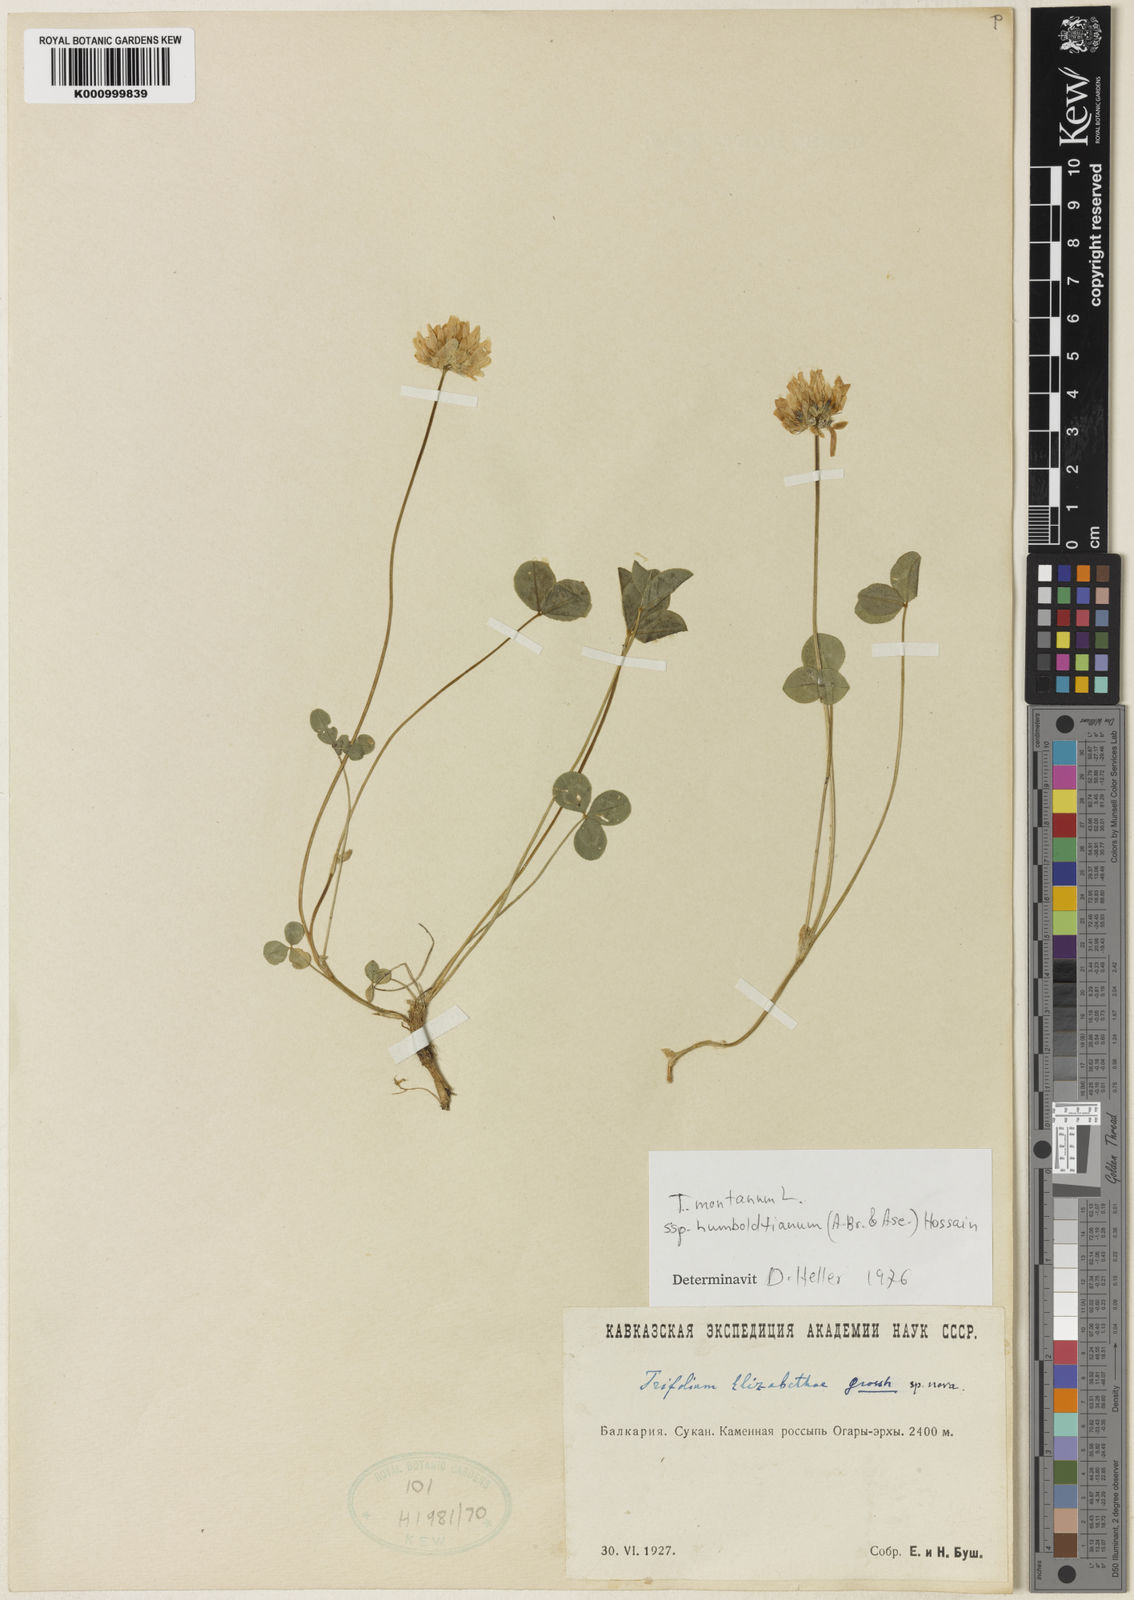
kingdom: Plantae
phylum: Tracheophyta
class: Magnoliopsida
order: Fabales
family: Fabaceae
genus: Trifolium
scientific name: Trifolium elizabethiae
